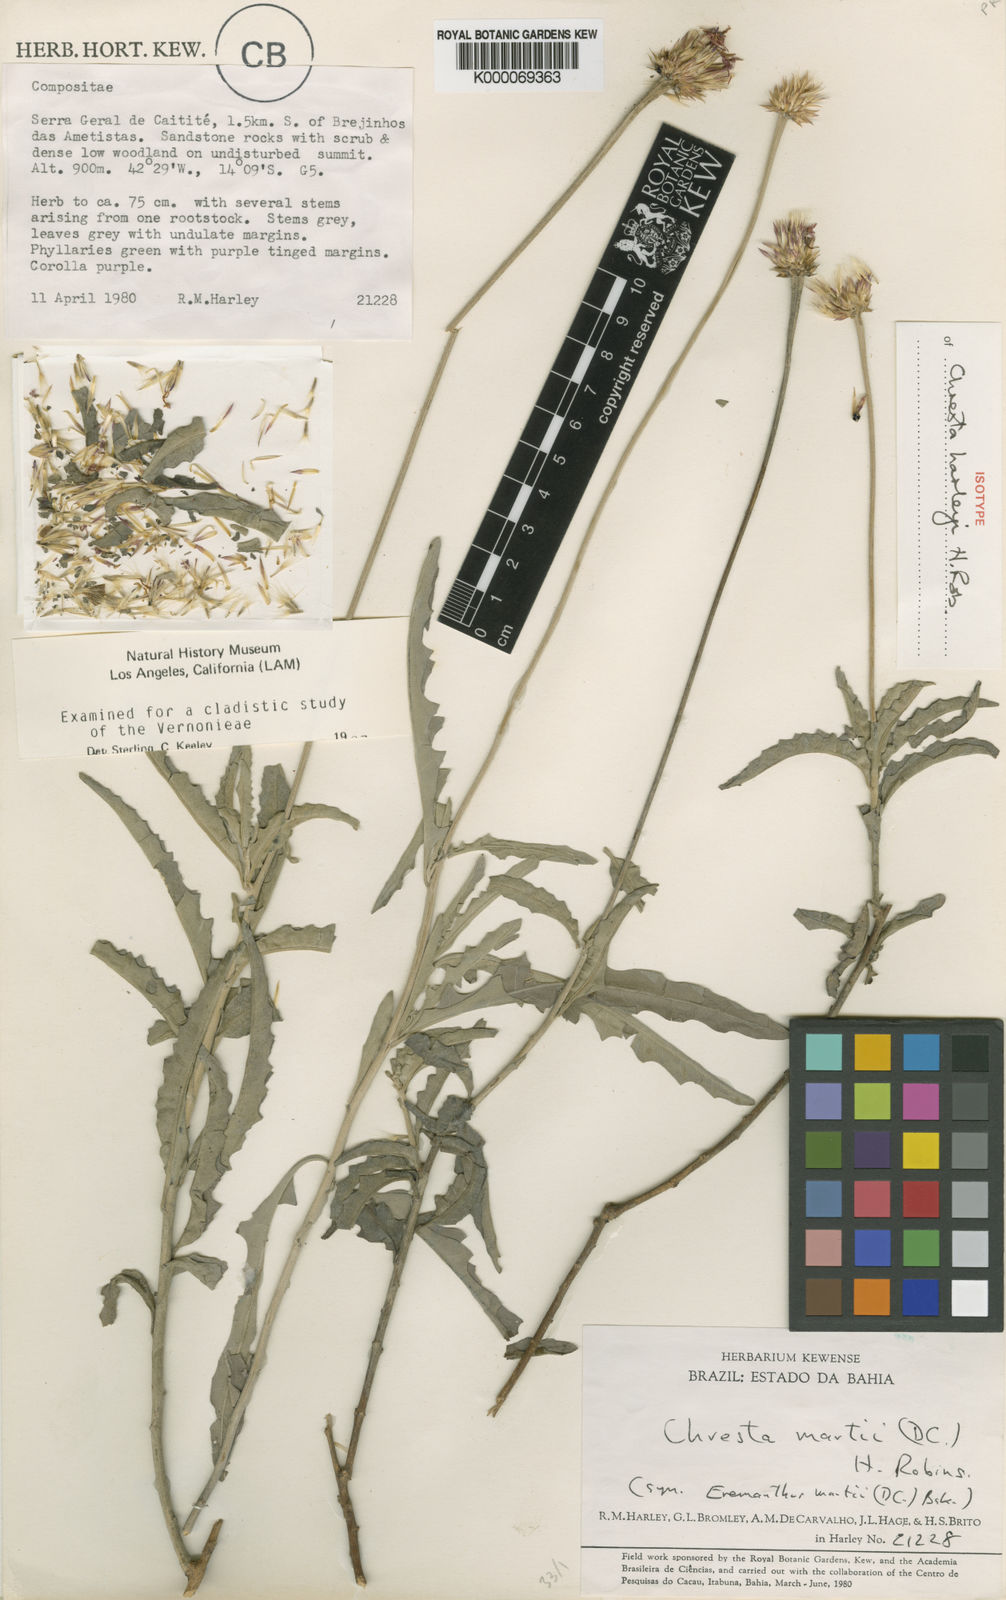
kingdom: Plantae
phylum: Tracheophyta
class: Magnoliopsida
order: Asterales
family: Asteraceae
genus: Chresta
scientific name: Chresta harleyi
